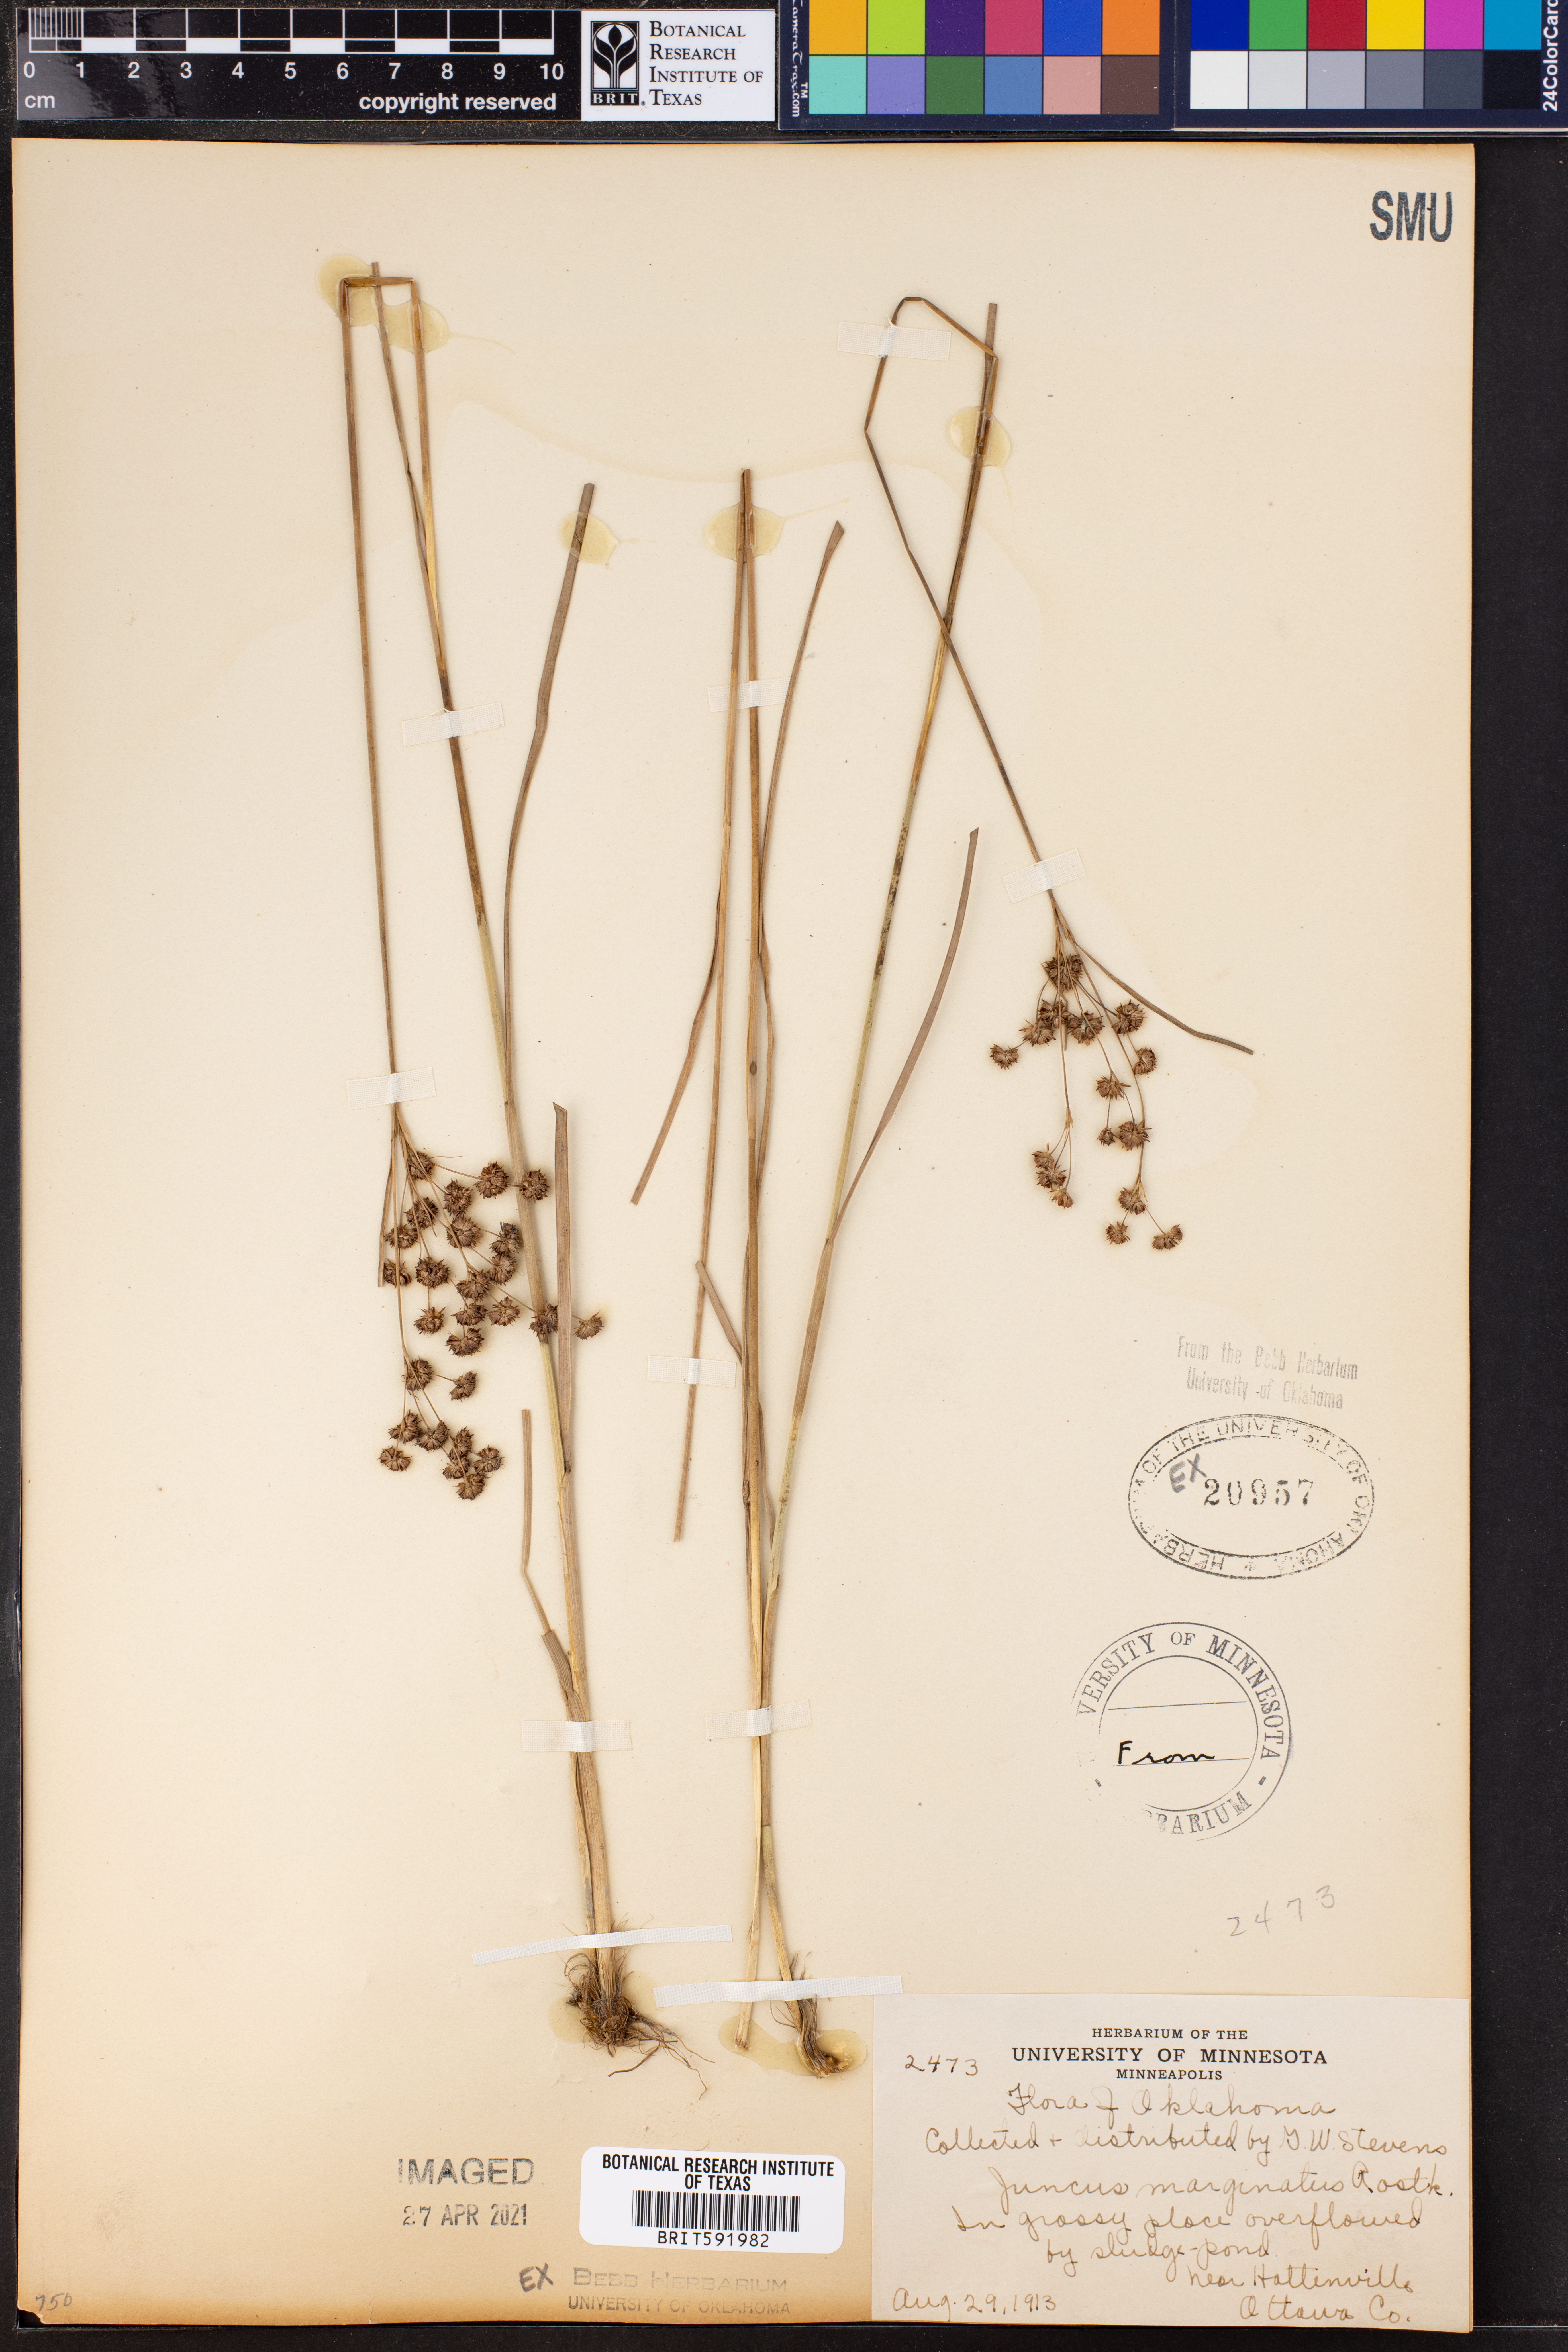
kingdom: Plantae
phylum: Tracheophyta
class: Liliopsida
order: Poales
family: Juncaceae
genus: Juncus
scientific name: Juncus marginatus
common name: Grass-leaf rush
